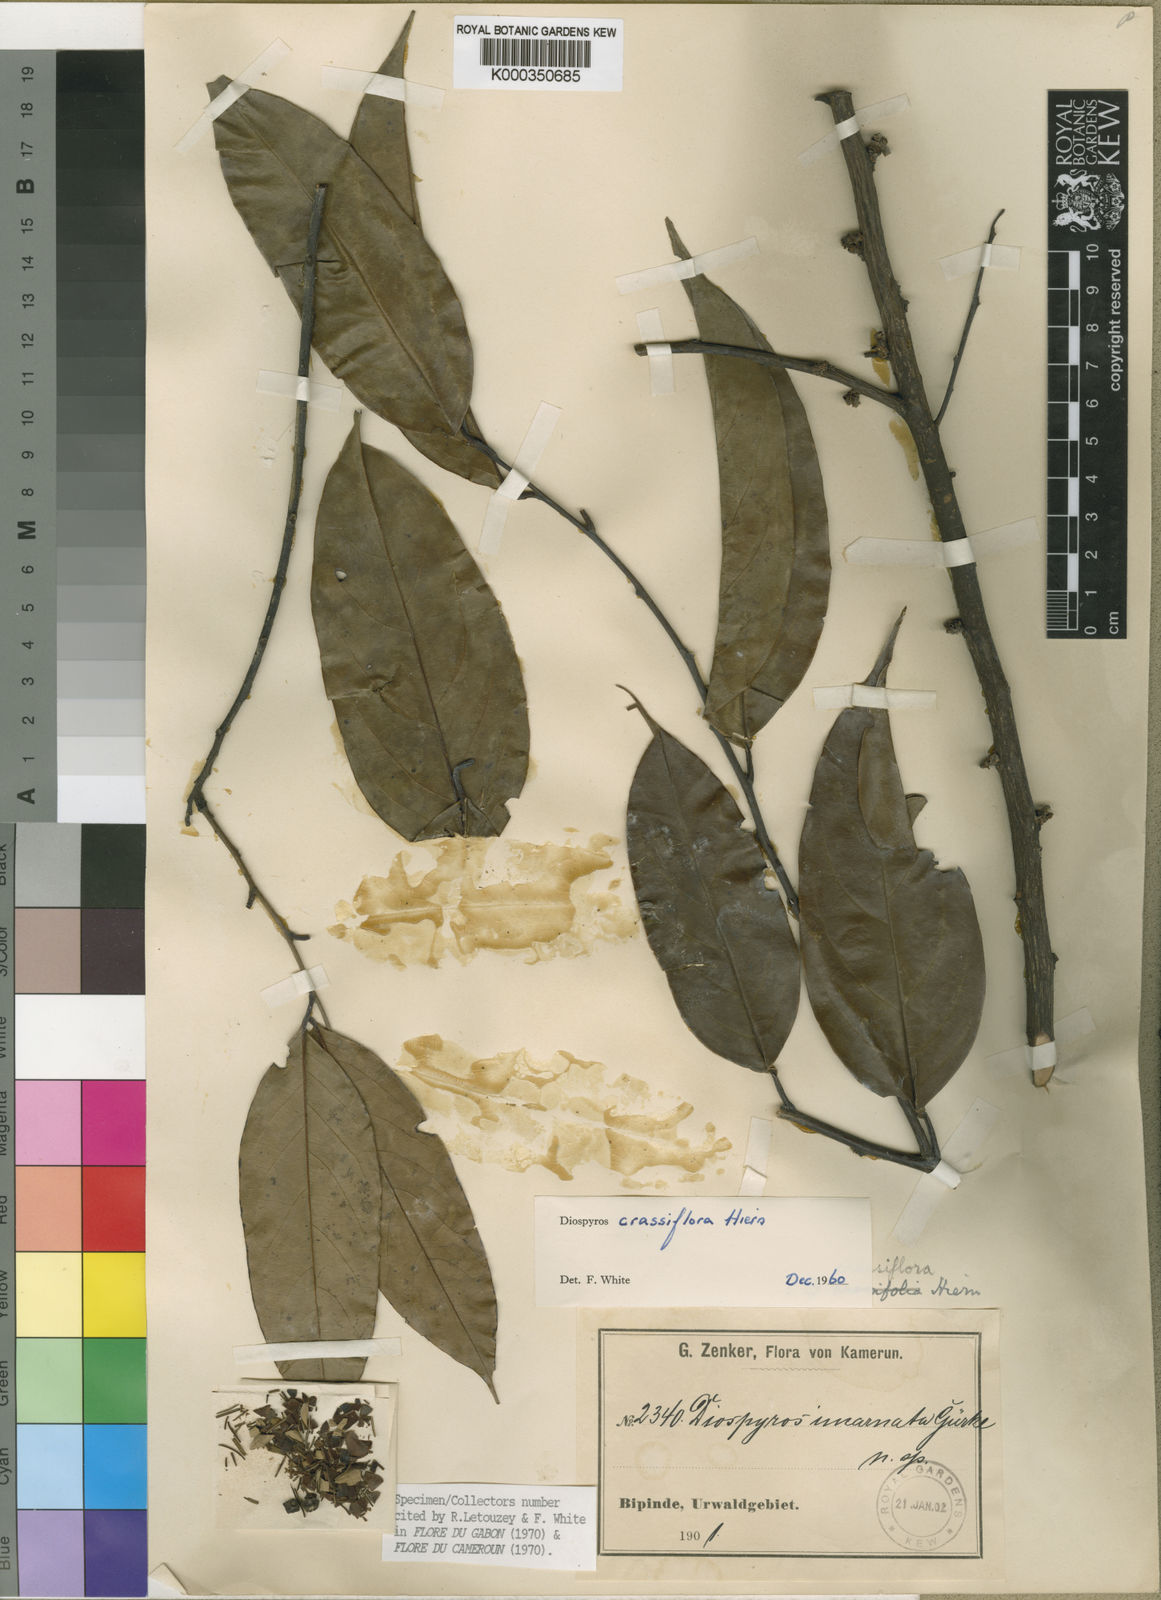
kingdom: Plantae
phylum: Tracheophyta
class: Magnoliopsida
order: Ericales
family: Ebenaceae
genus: Diospyros
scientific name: Diospyros crassiflora
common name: Ebony
